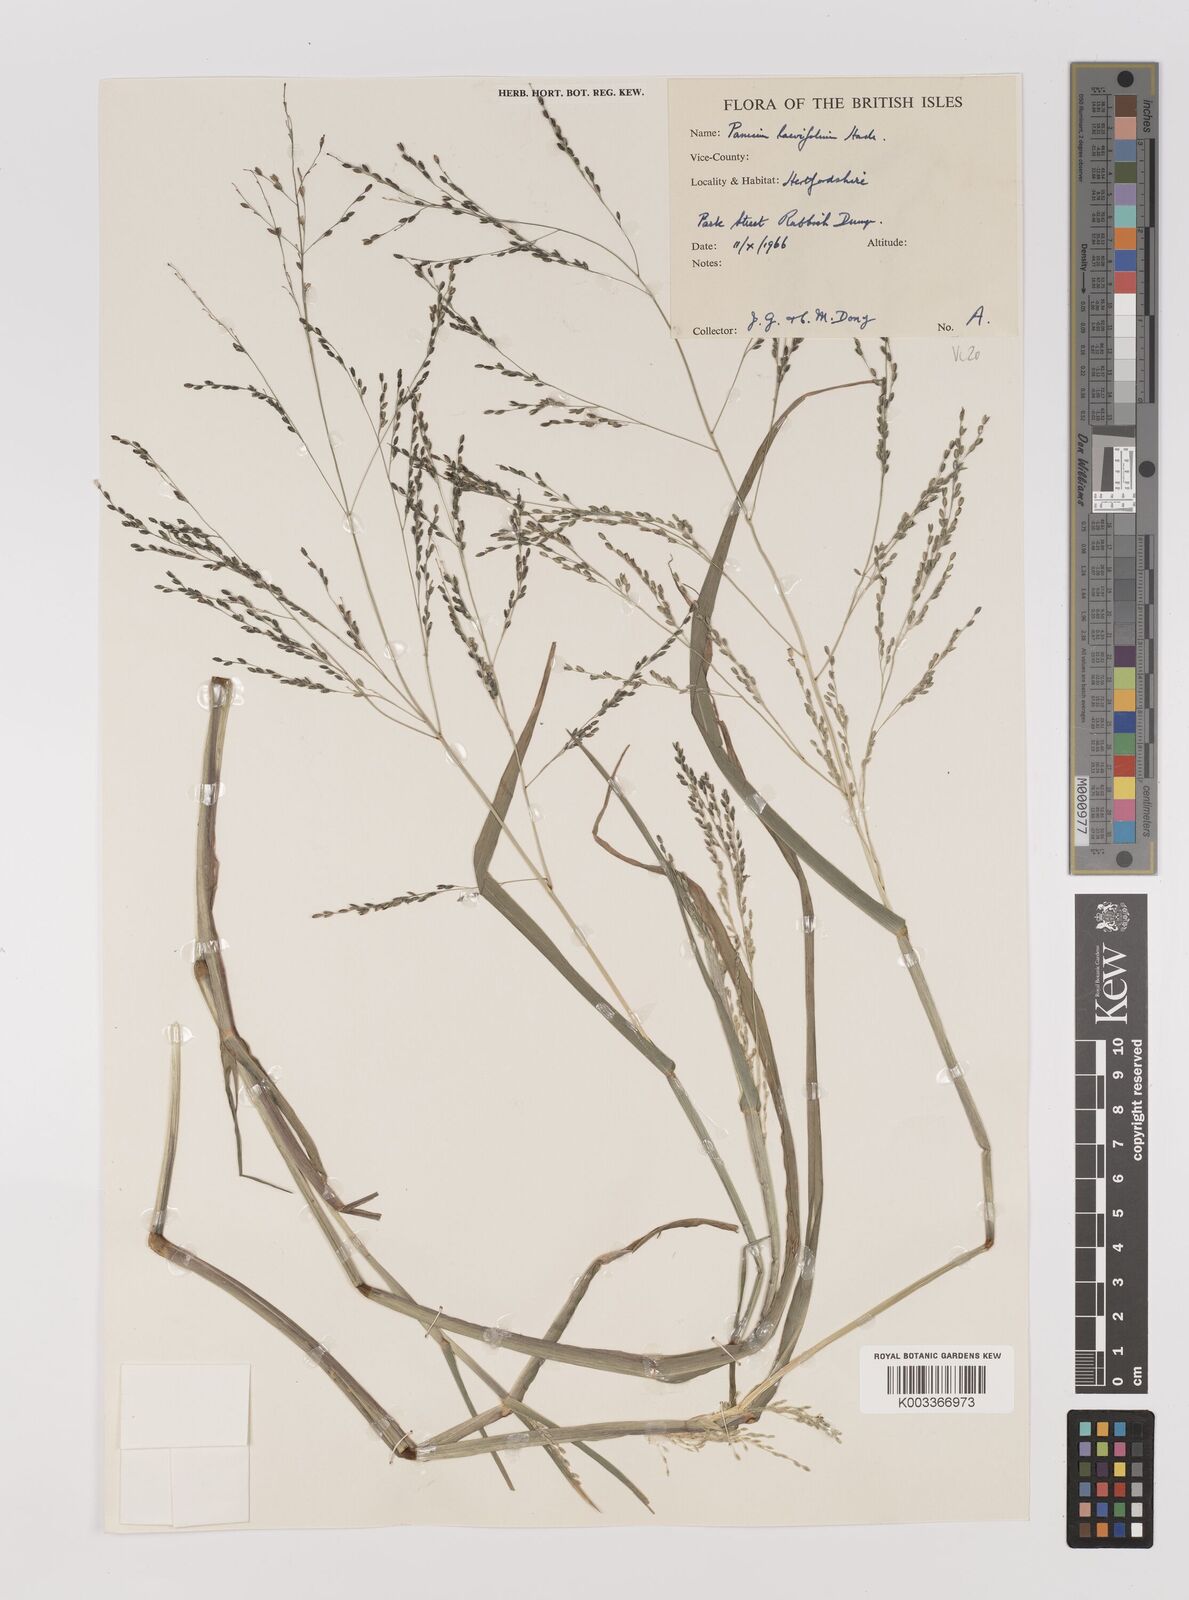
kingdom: Plantae
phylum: Tracheophyta
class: Liliopsida
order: Poales
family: Poaceae
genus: Panicum
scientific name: Panicum schinzii
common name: Sweet grass
